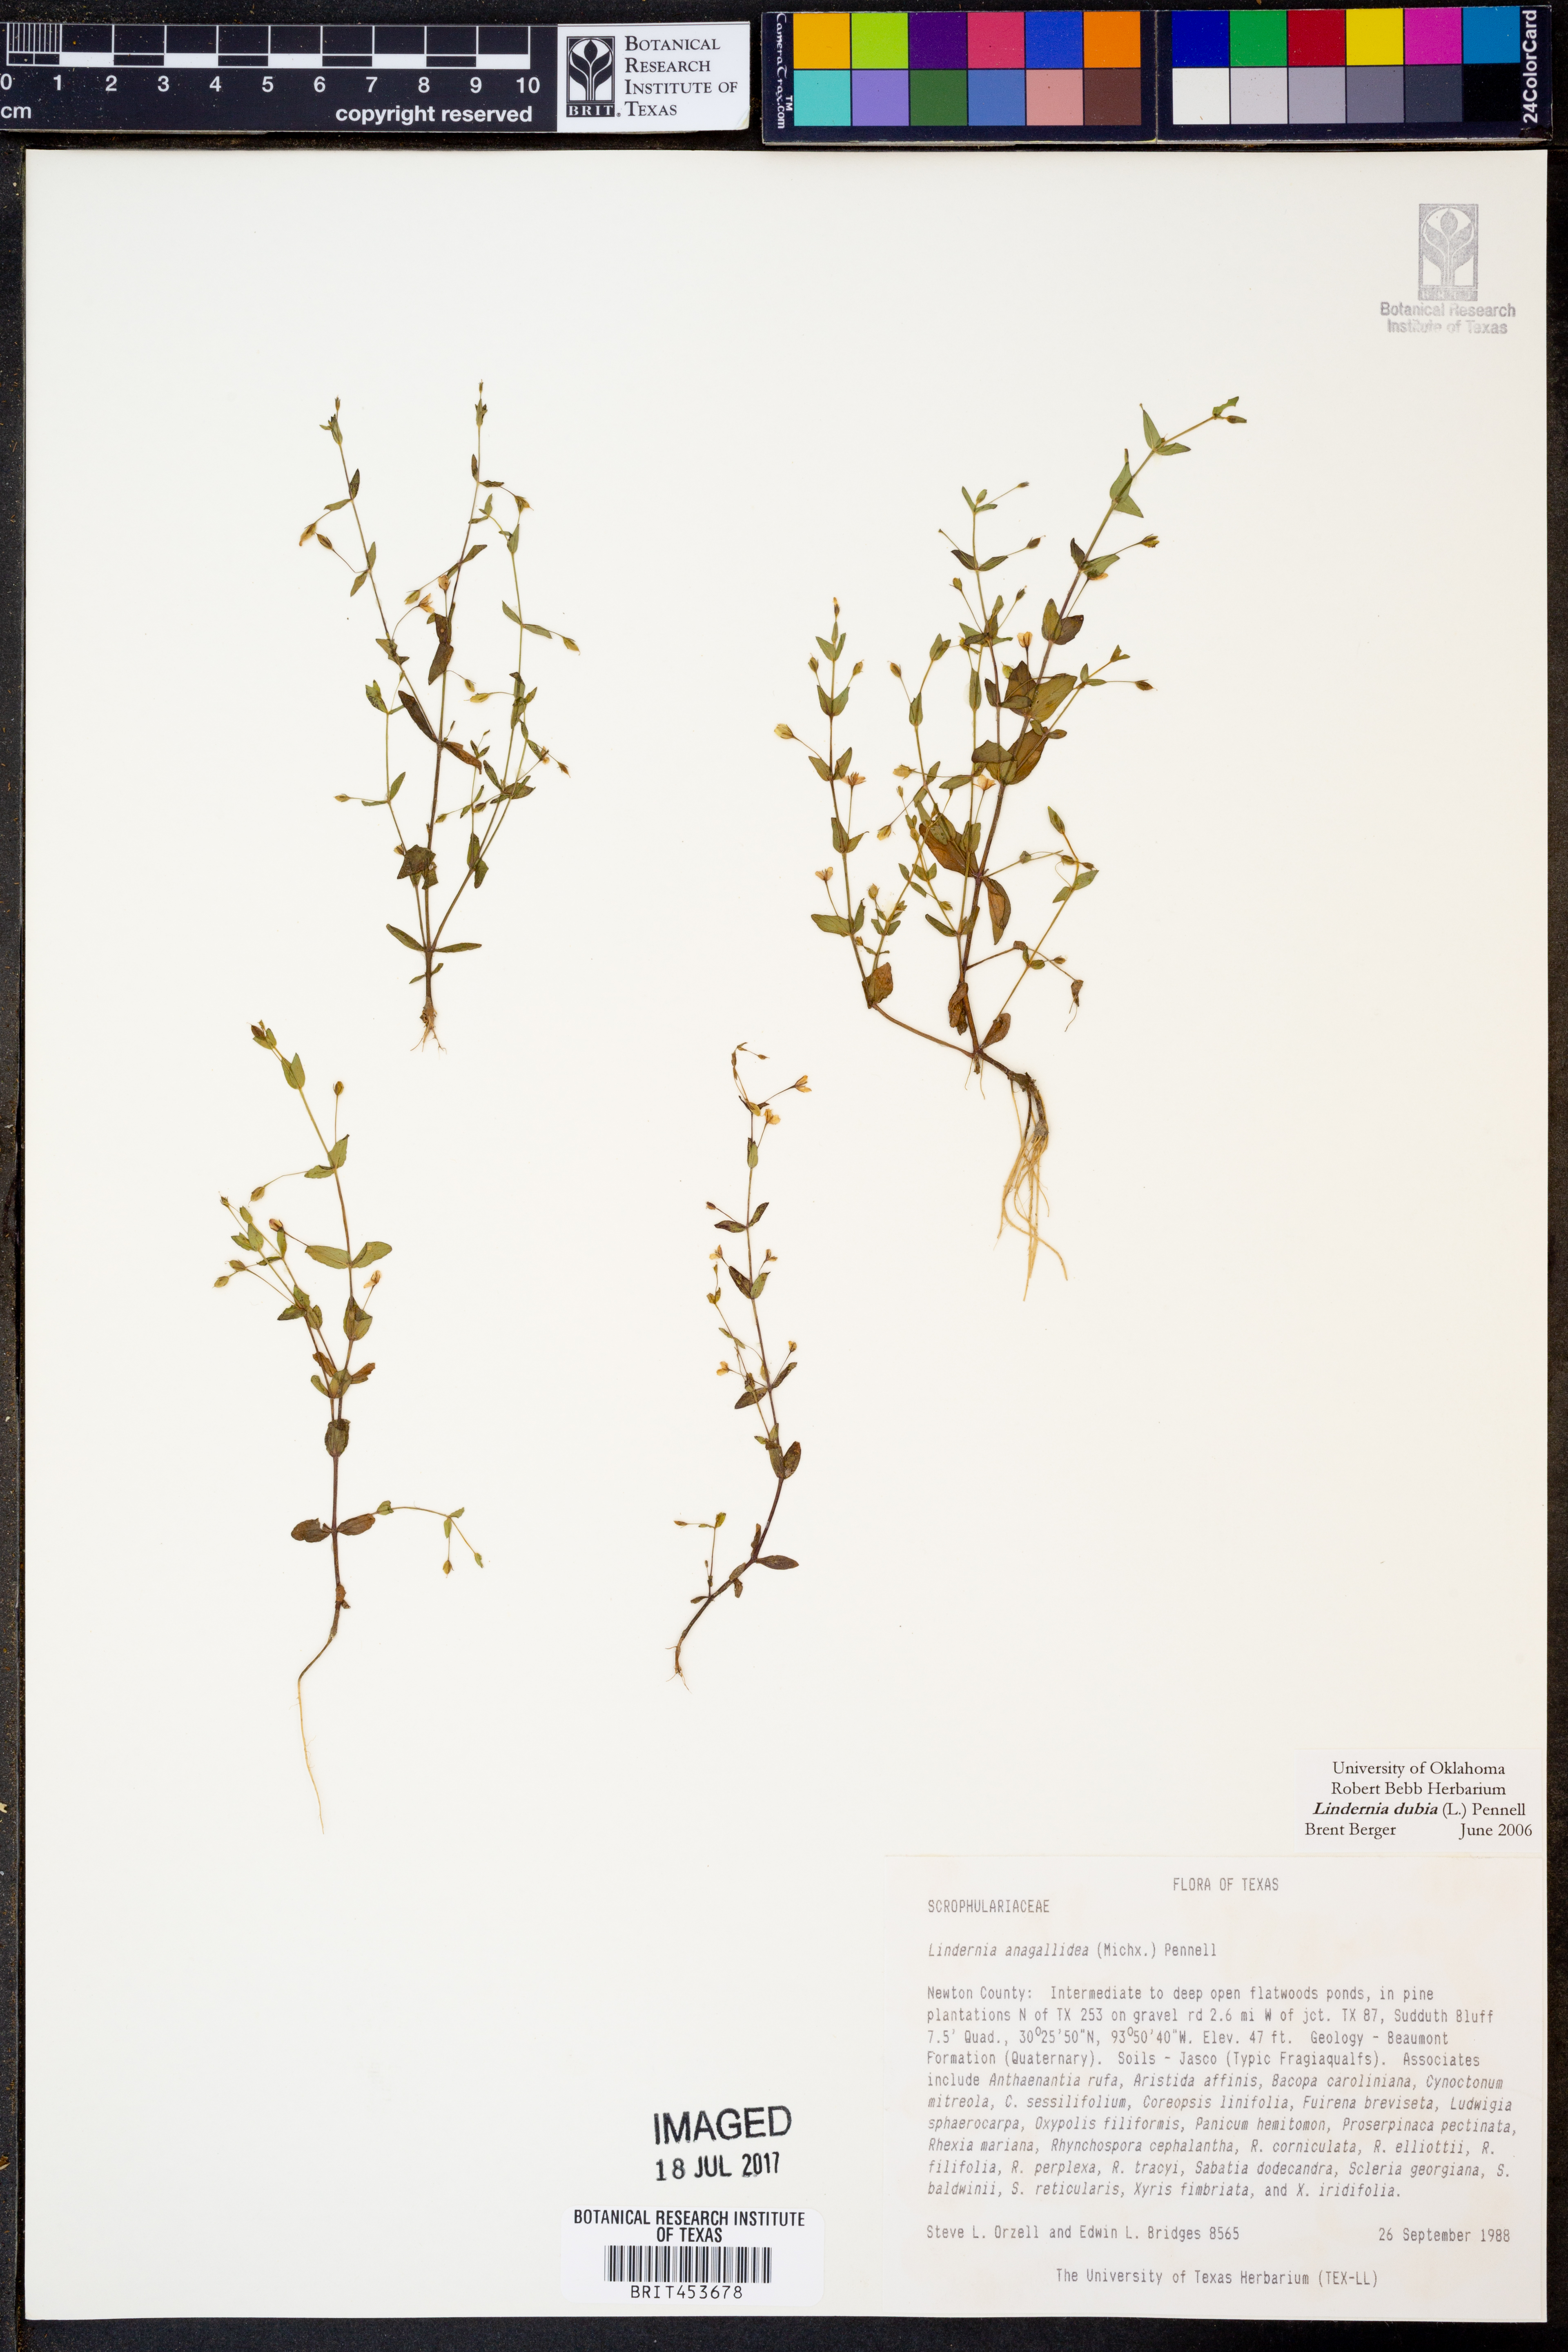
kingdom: Plantae
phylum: Tracheophyta
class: Magnoliopsida
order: Lamiales
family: Linderniaceae
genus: Lindernia
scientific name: Lindernia dubia
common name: Annual false pimpernel
